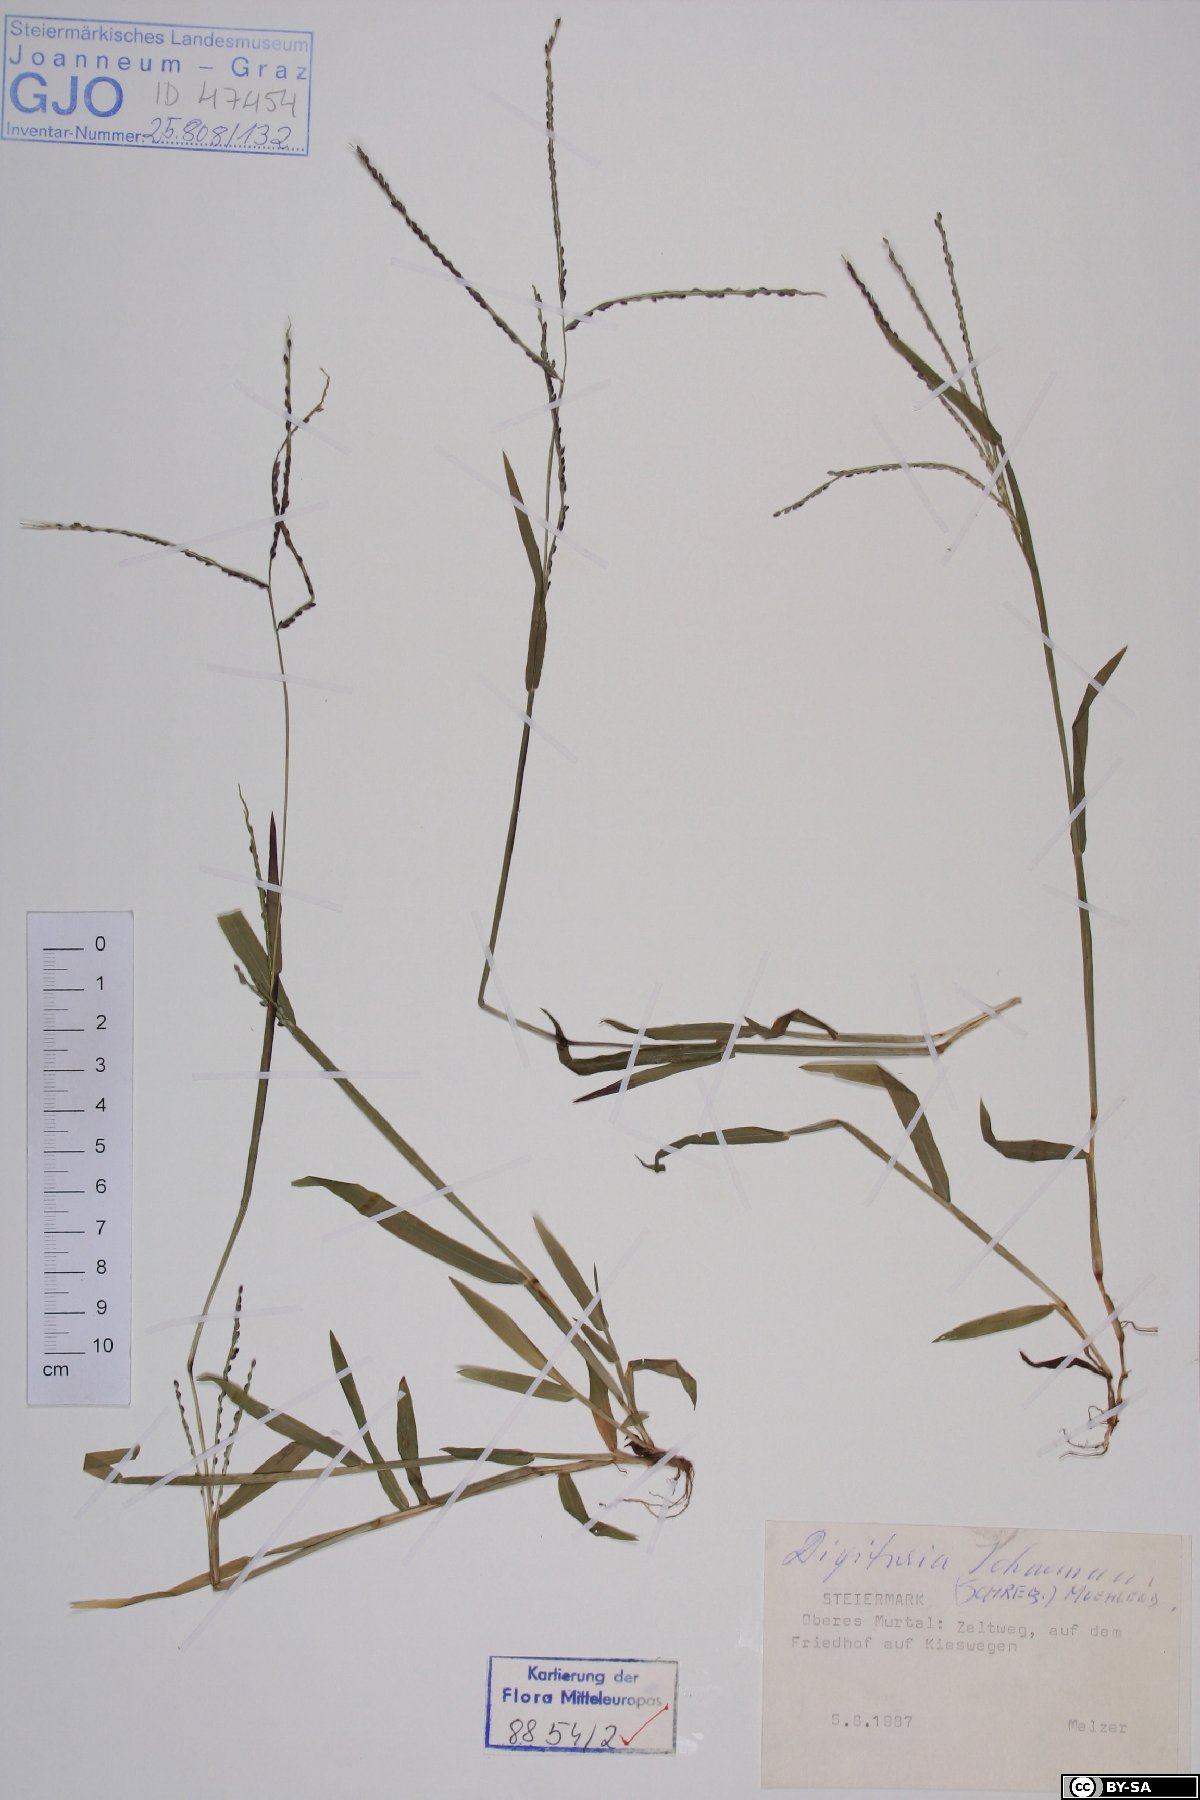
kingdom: Plantae
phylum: Tracheophyta
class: Liliopsida
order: Poales
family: Poaceae
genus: Digitaria
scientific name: Digitaria ischaemum
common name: Smooth crabgrass
